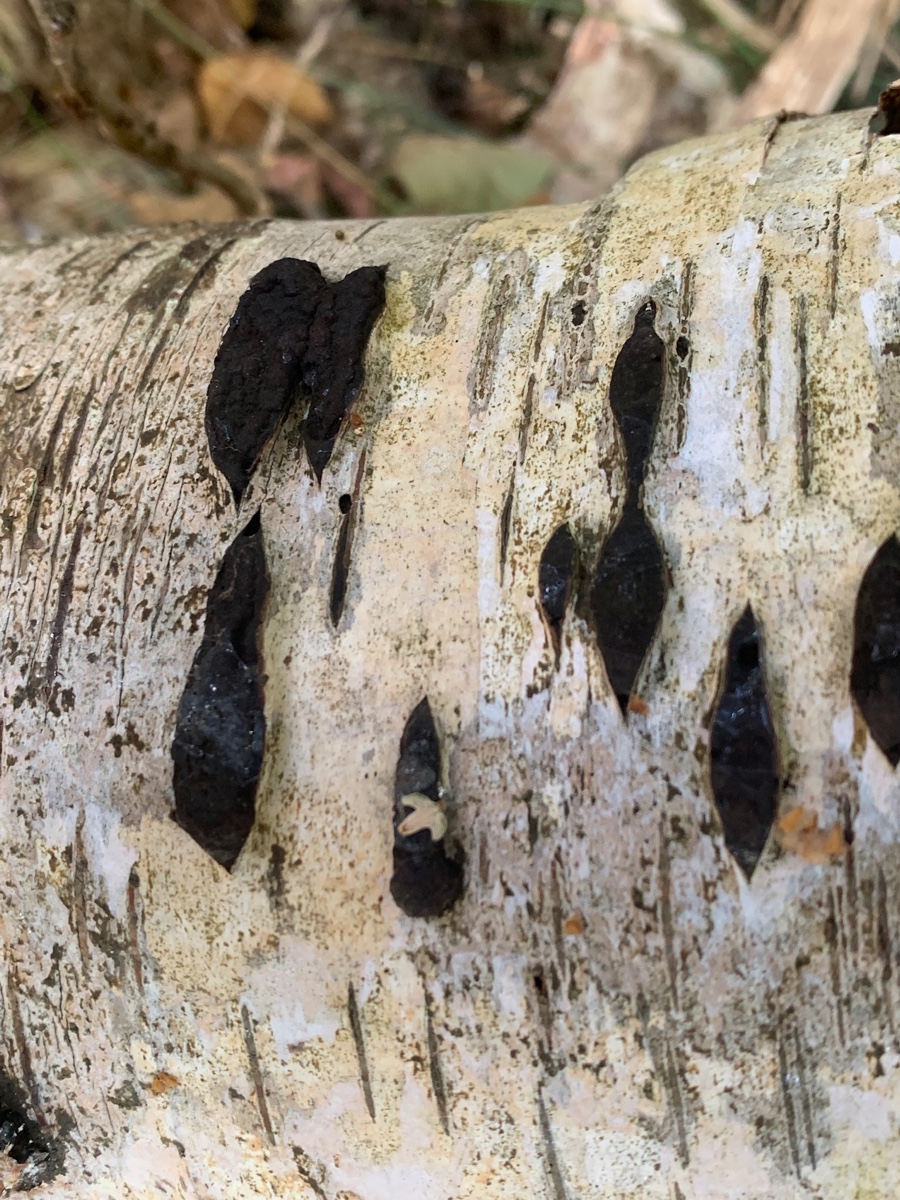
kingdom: Fungi
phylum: Ascomycota
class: Sordariomycetes
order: Xylariales
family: Hypoxylaceae
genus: Jackrogersella
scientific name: Jackrogersella multiformis
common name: foranderlig kulbær
